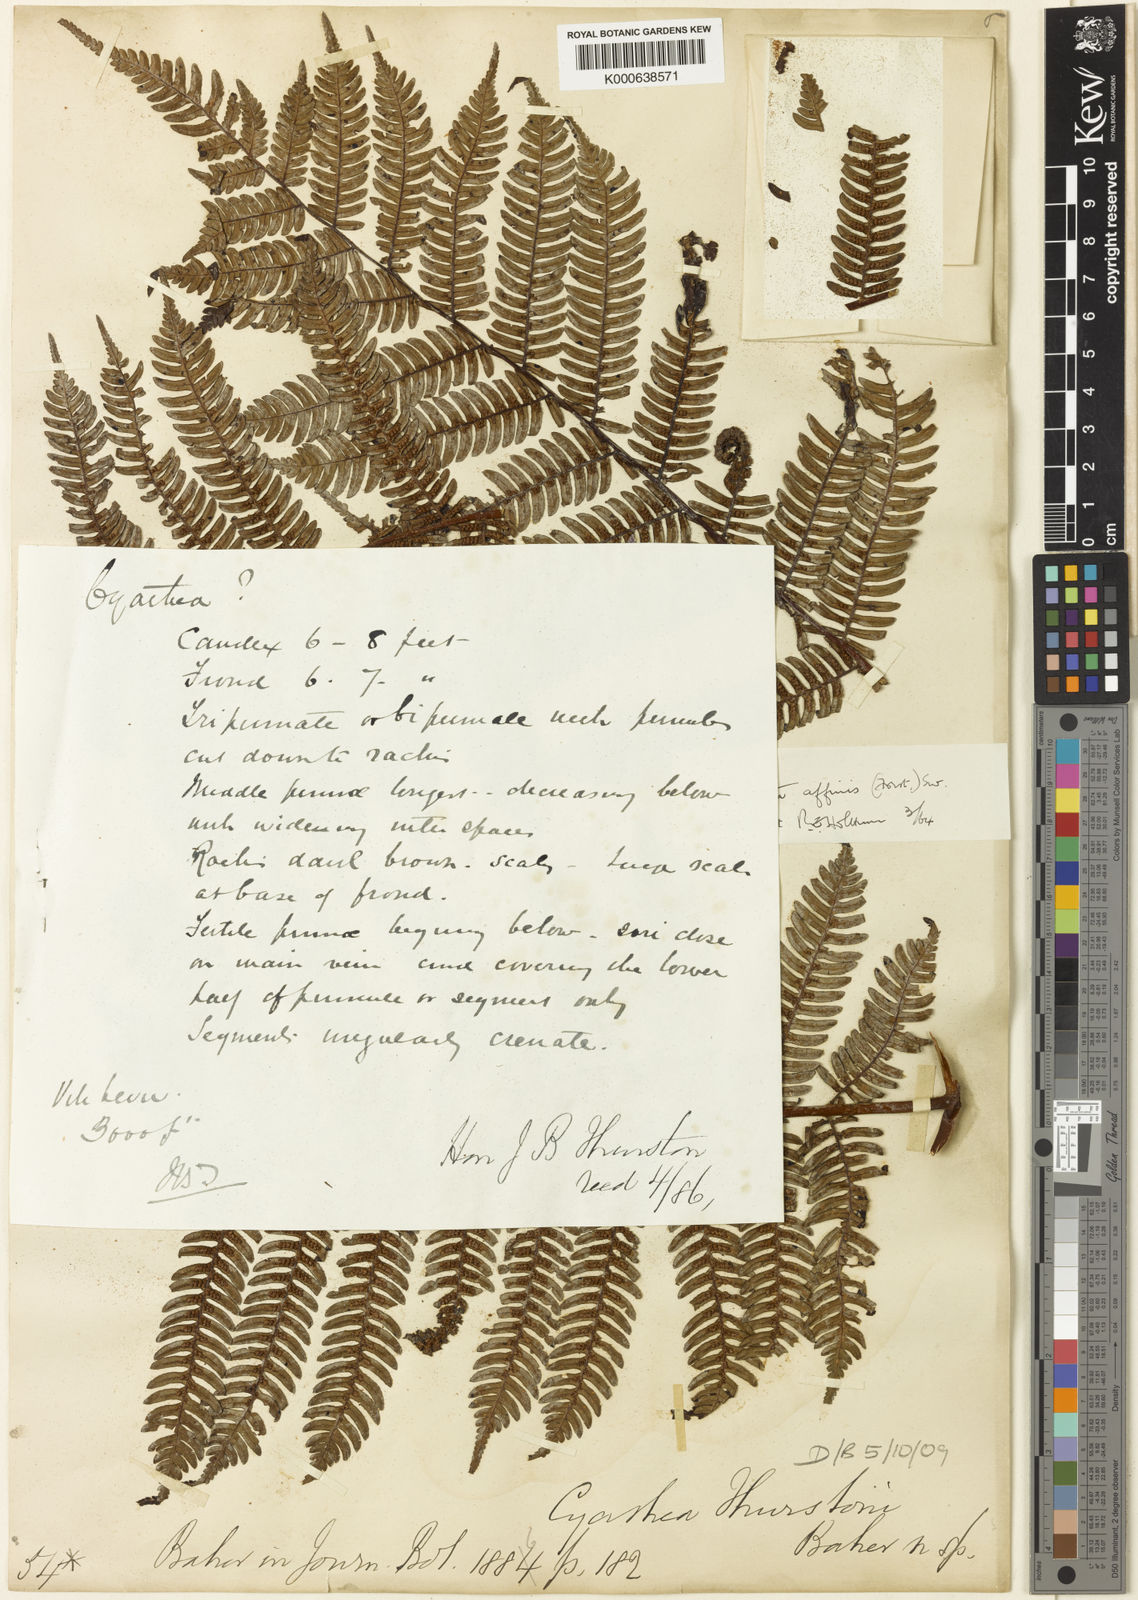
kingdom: Plantae
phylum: Tracheophyta
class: Polypodiopsida
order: Cyatheales
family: Cyatheaceae
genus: Alsophila
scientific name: Alsophila tahitensis
